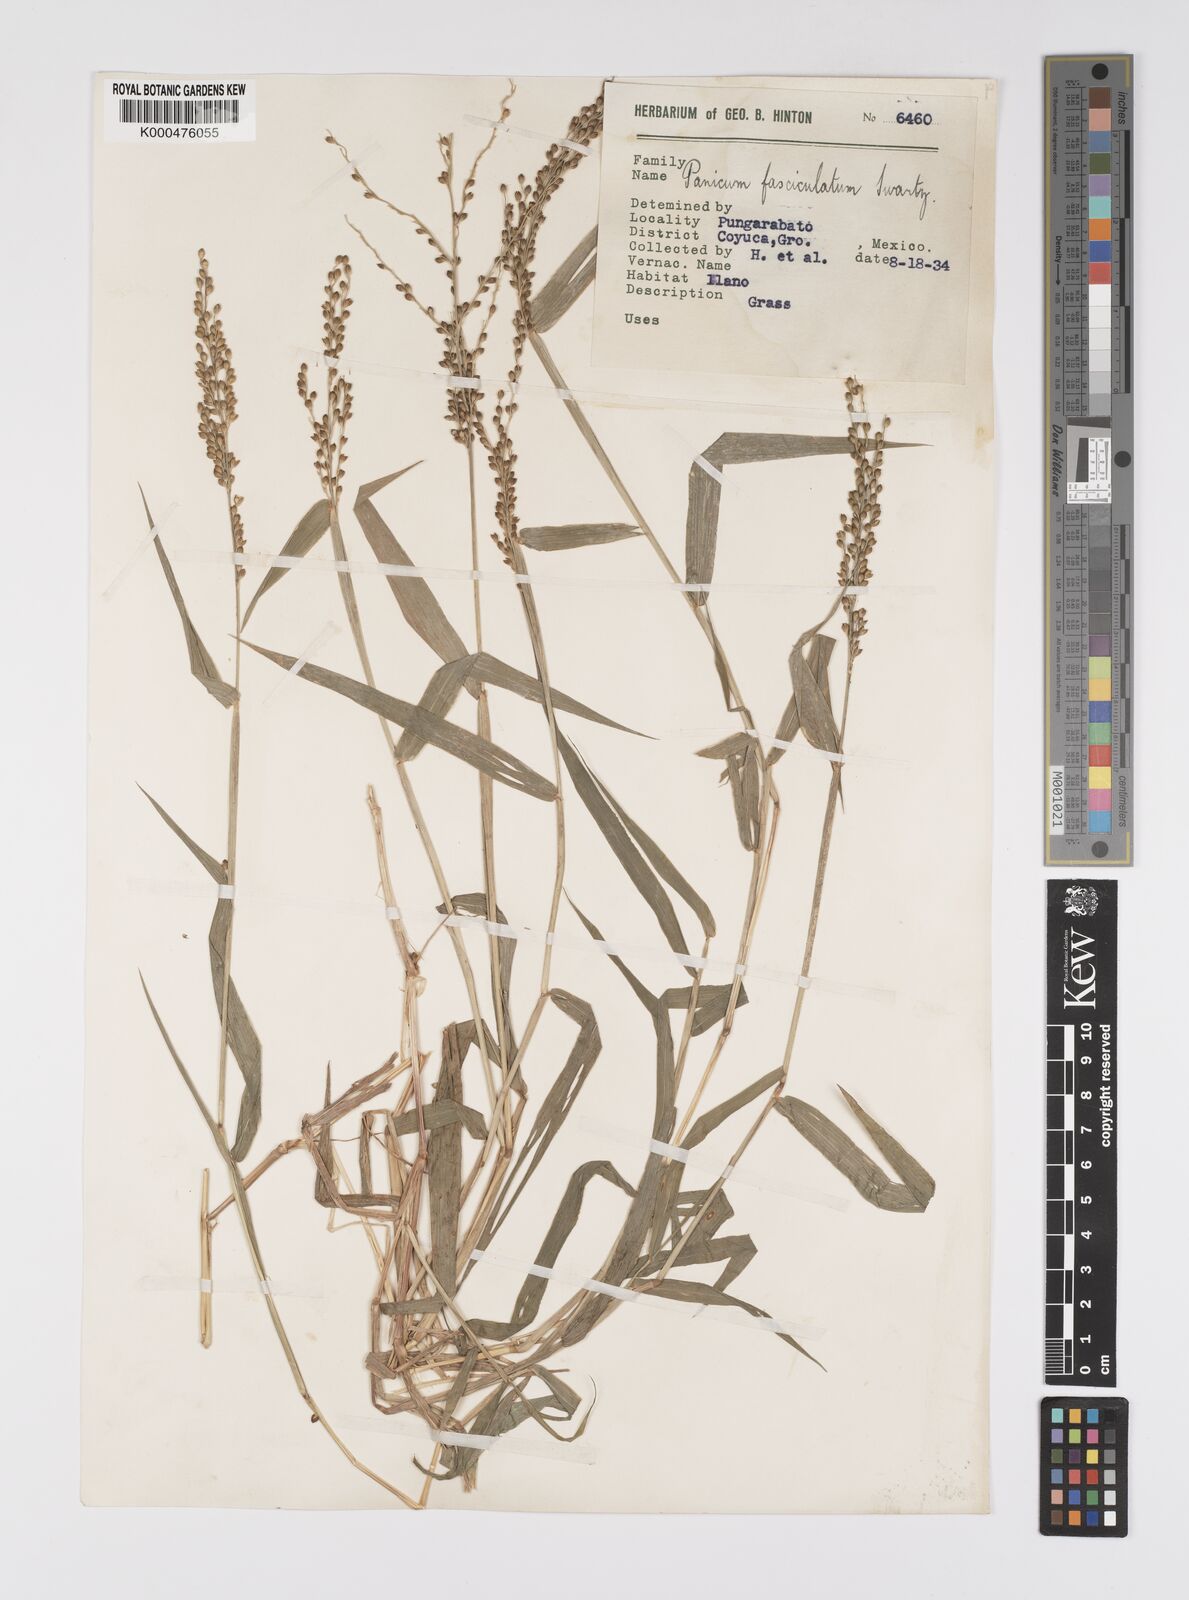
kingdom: Plantae
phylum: Tracheophyta
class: Liliopsida
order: Poales
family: Poaceae
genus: Urochloa
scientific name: Urochloa fusca
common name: Browntop signal grass
